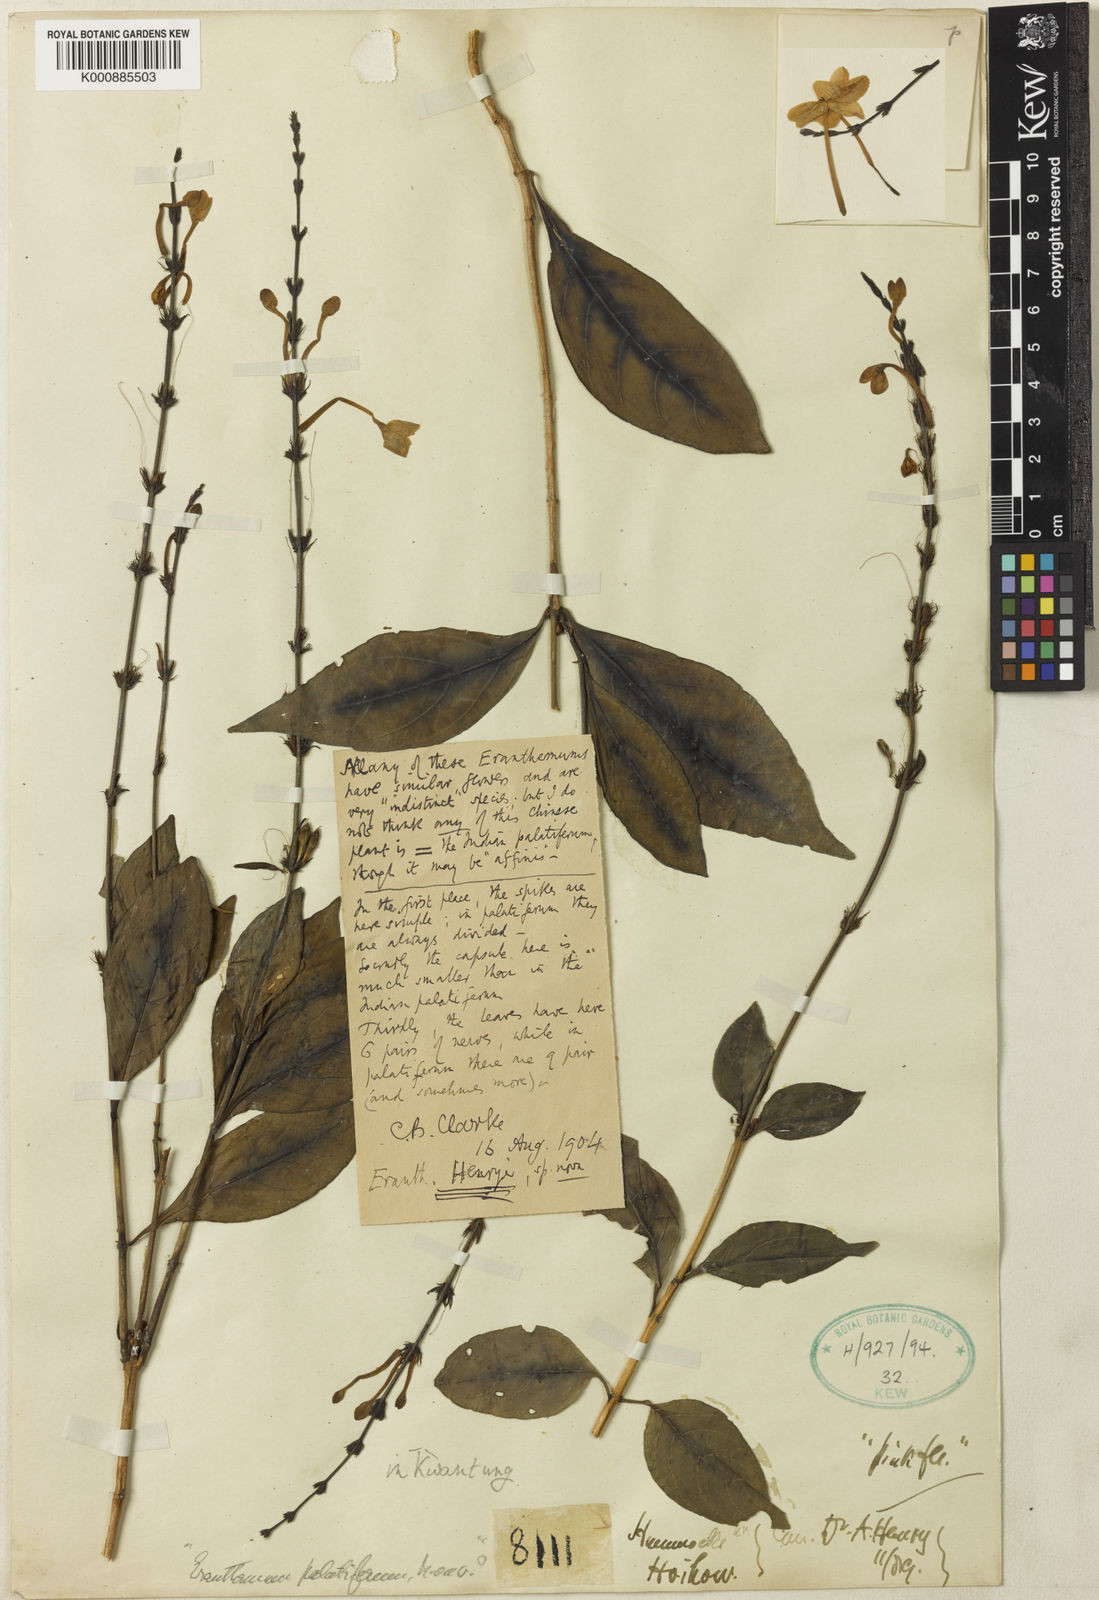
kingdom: Plantae
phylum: Tracheophyta
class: Magnoliopsida
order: Lamiales
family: Acanthaceae
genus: Pseuderanthemum
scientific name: Pseuderanthemum
